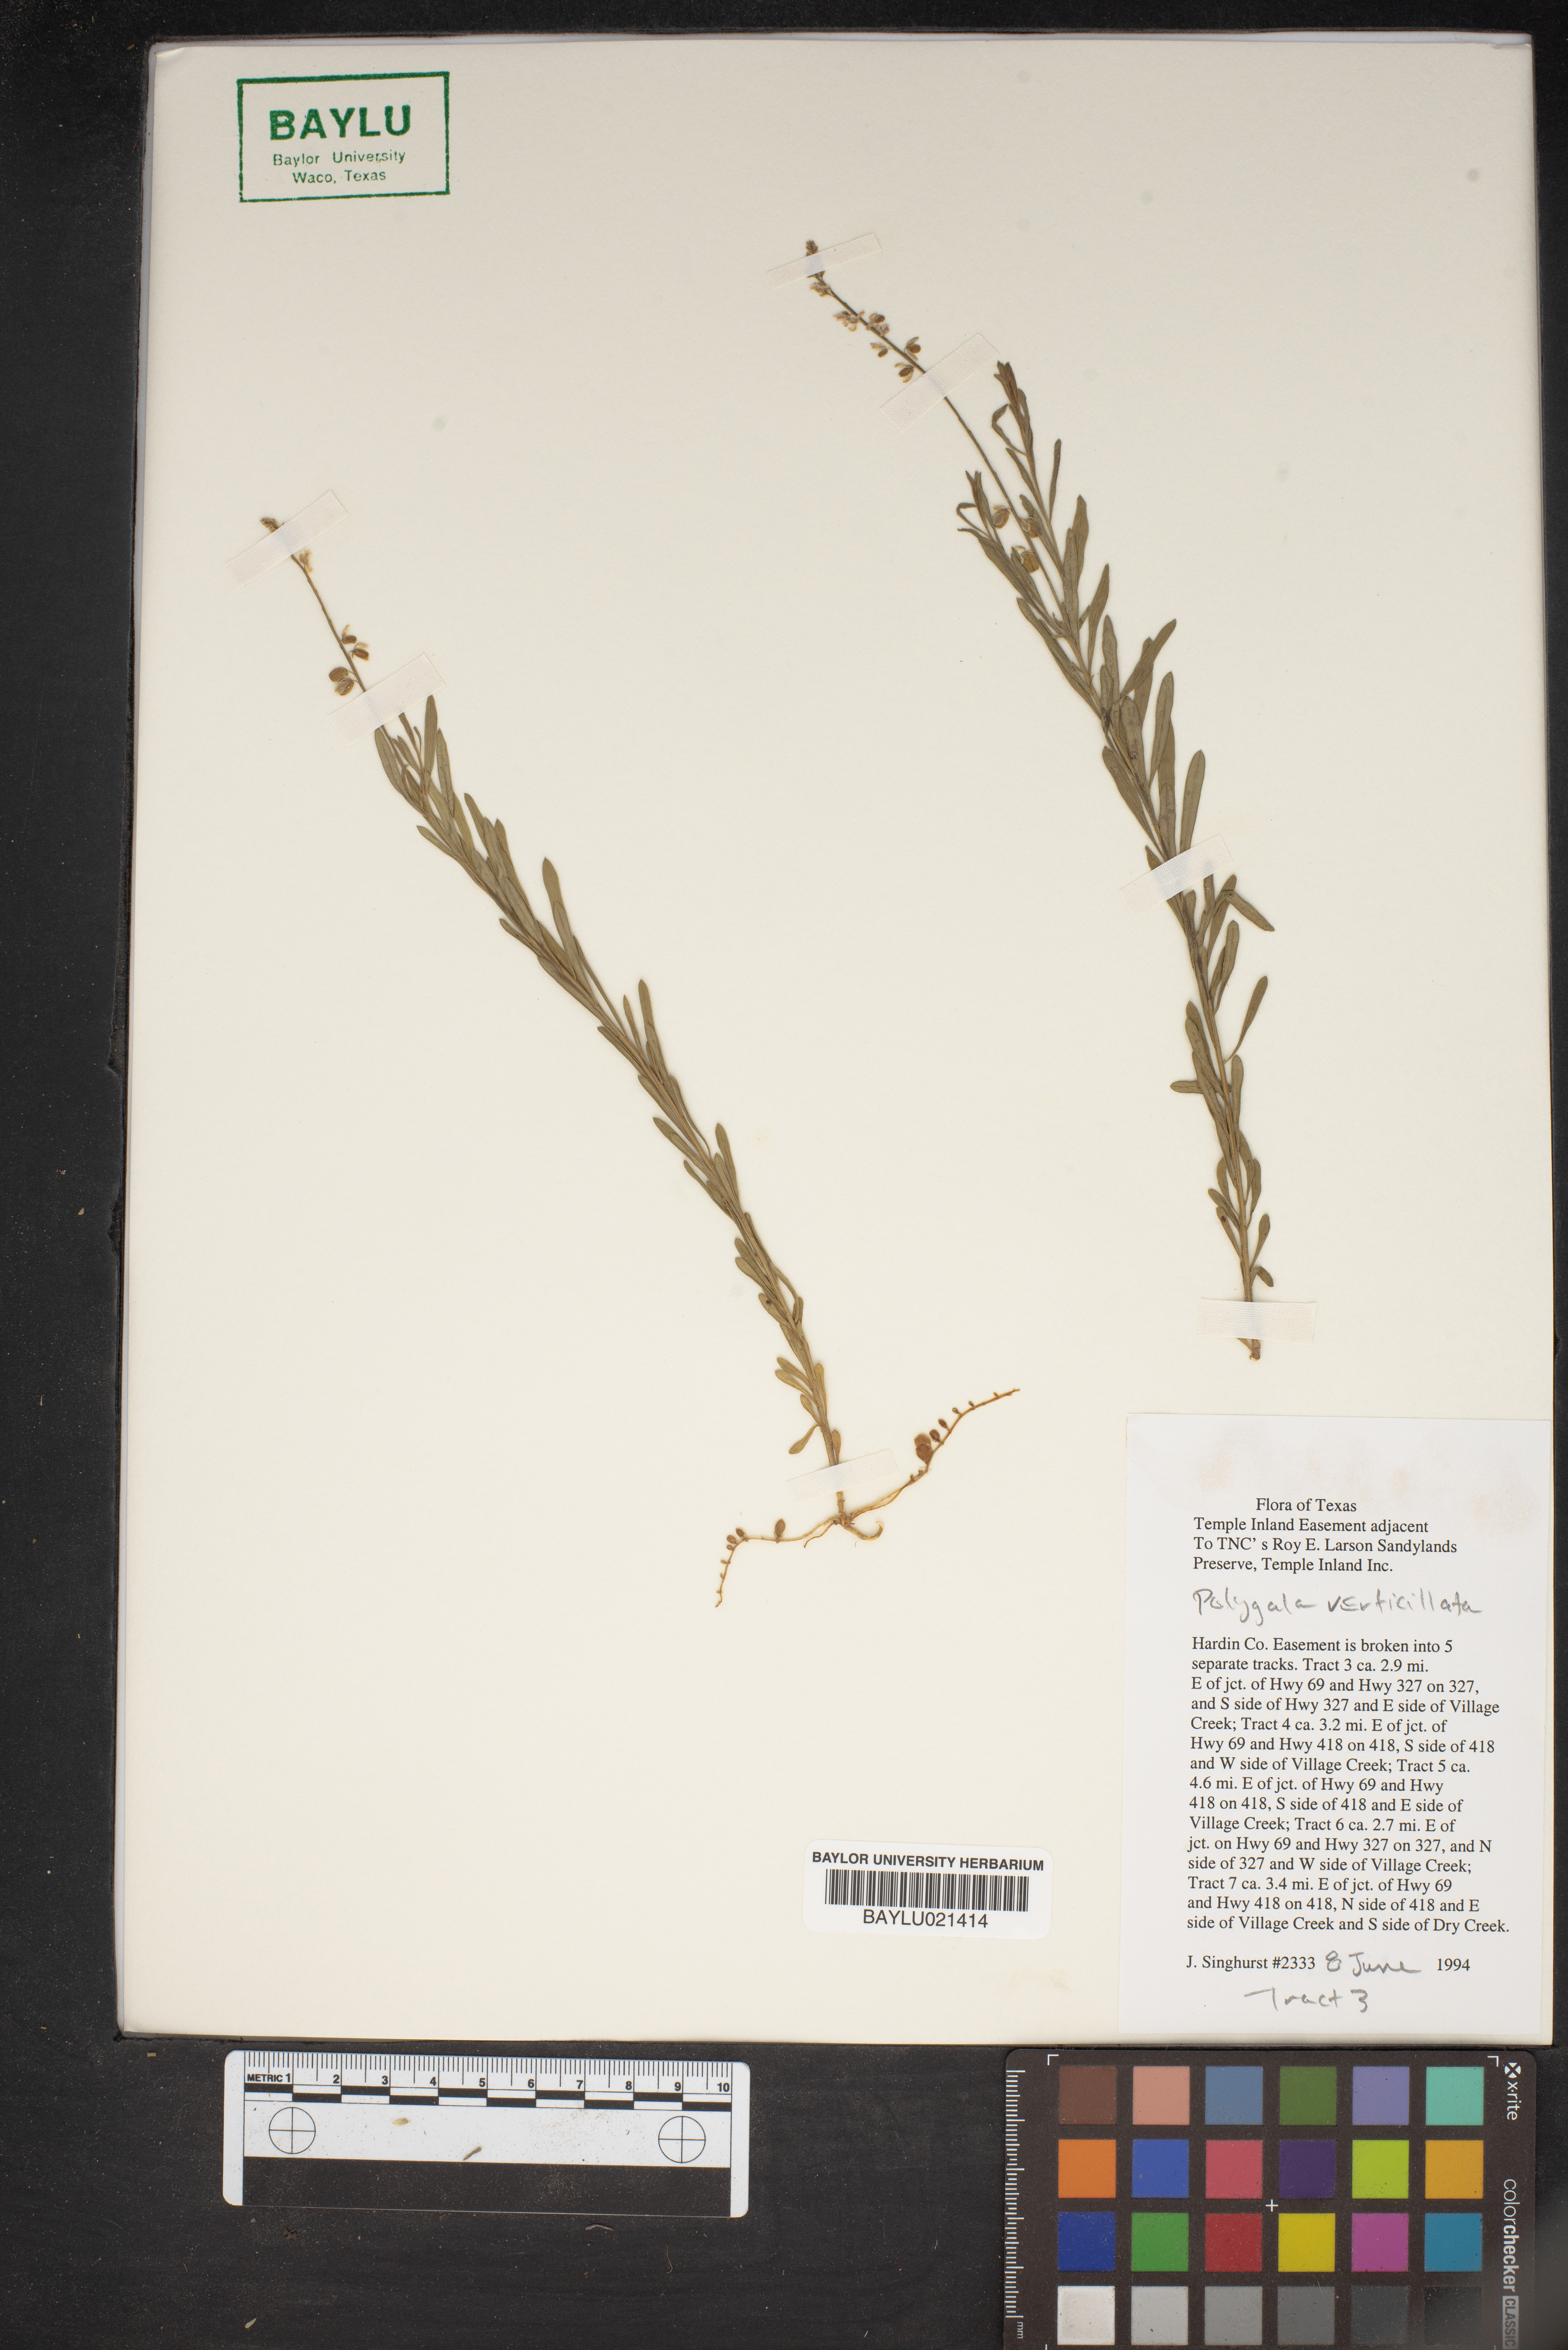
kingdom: Plantae
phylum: Tracheophyta
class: Magnoliopsida
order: Fabales
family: Polygalaceae
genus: Polygala
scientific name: Polygala verticillata
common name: Whorl milkwort
